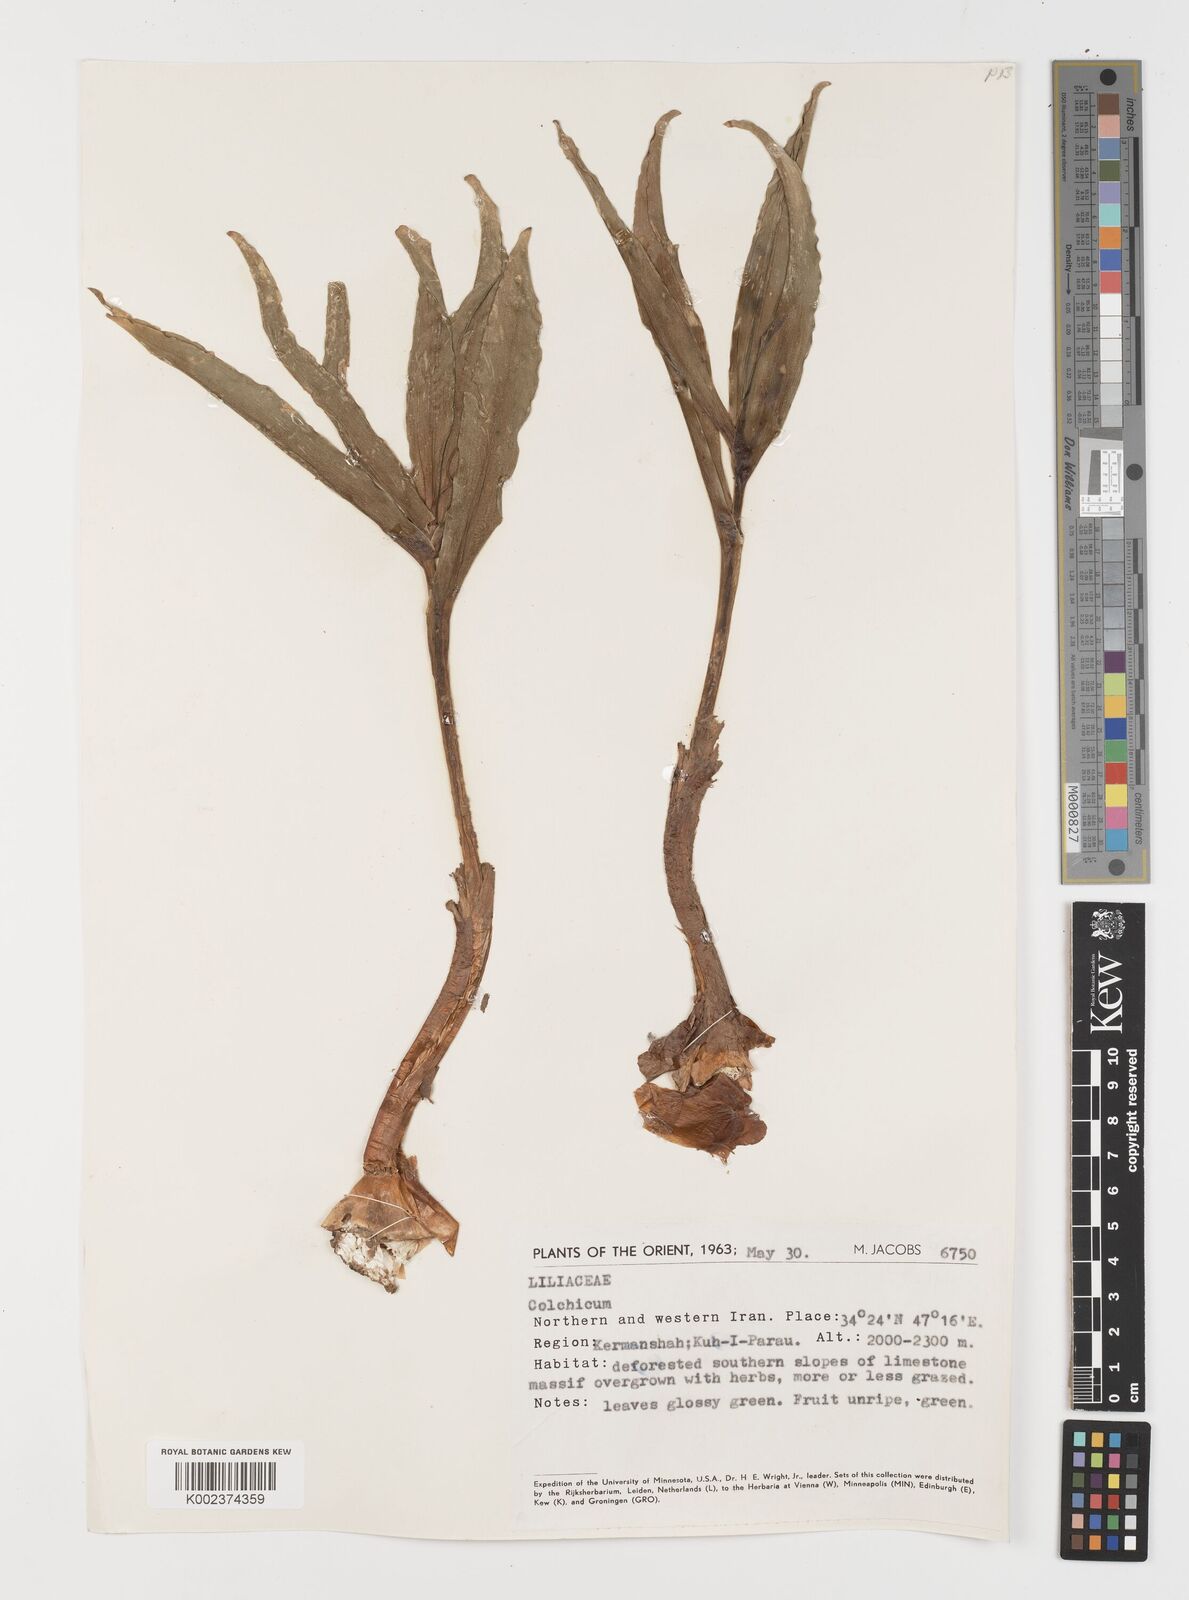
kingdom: Plantae
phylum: Tracheophyta
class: Liliopsida
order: Liliales
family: Colchicaceae
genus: Colchicum
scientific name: Colchicum
